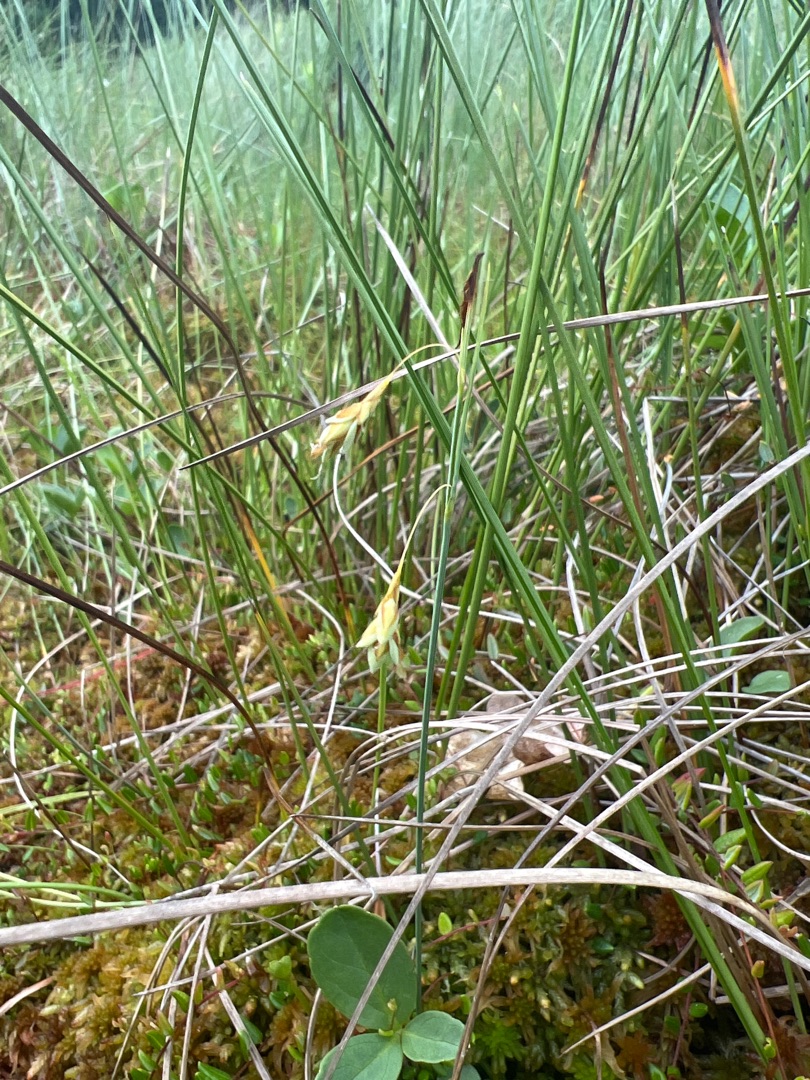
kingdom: Plantae
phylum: Tracheophyta
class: Liliopsida
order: Poales
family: Cyperaceae
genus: Carex
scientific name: Carex limosa
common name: Dynd-star
